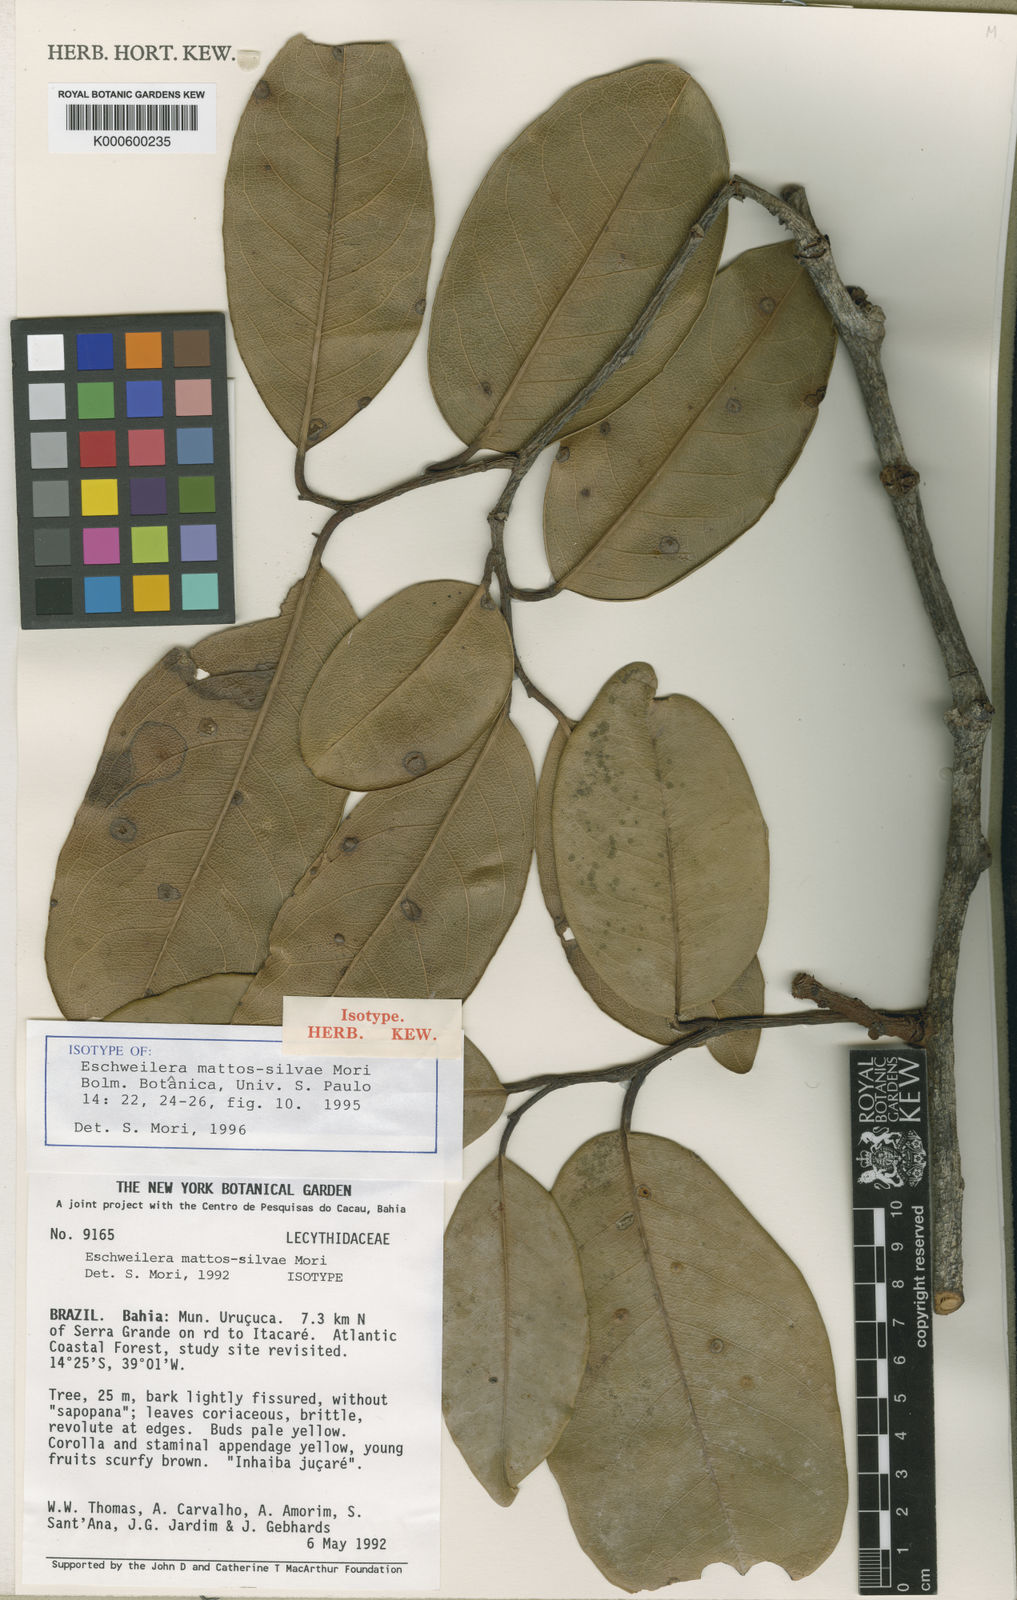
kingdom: Plantae
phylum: Tracheophyta
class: Magnoliopsida
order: Ericales
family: Lecythidaceae
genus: Eschweilera
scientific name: Eschweilera mattos-silvae
